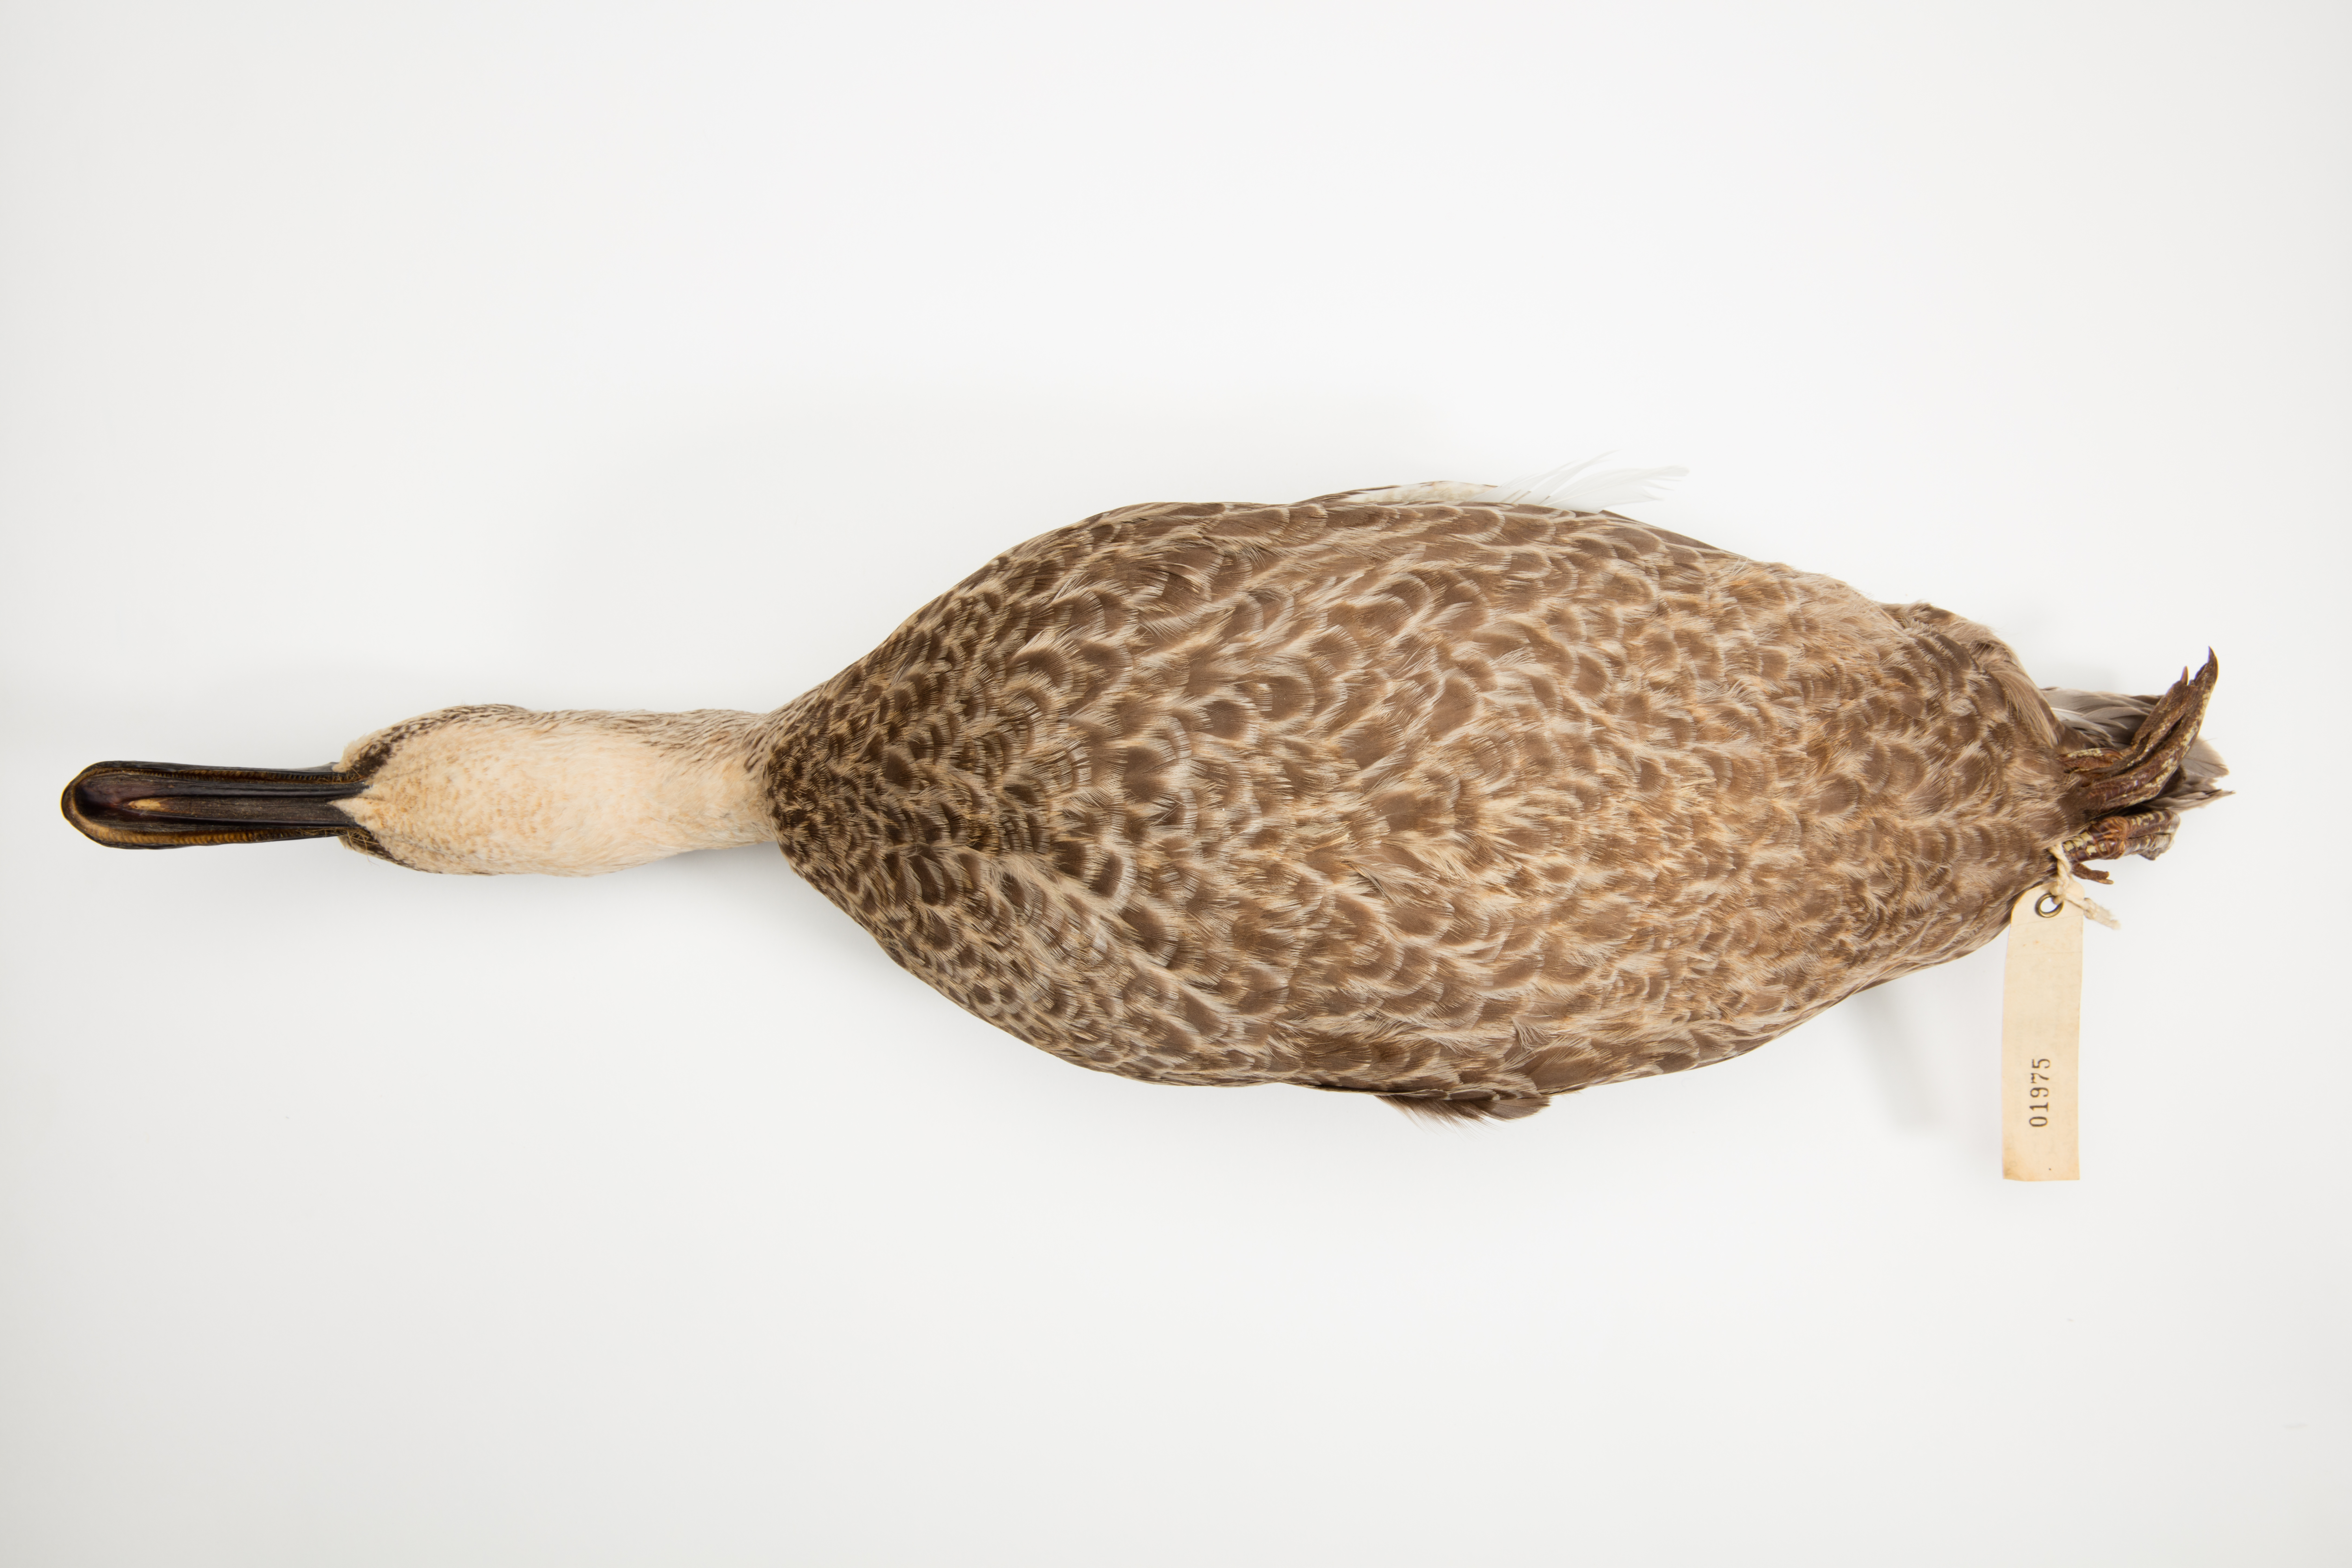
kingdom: Animalia
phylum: Chordata
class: Aves
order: Anseriformes
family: Anatidae
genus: Anas
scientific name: Anas superciliosa
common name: Pacific black duck
